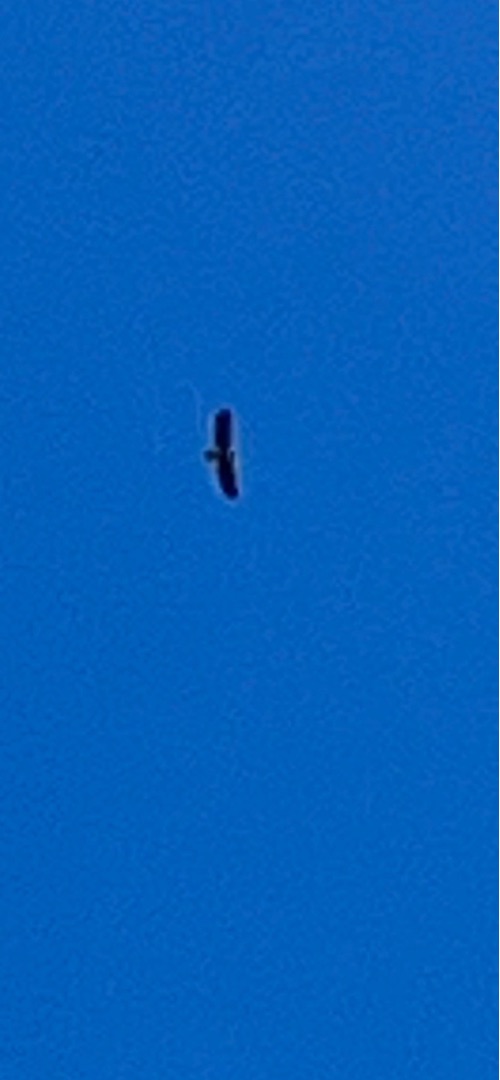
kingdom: Animalia
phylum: Chordata
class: Aves
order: Accipitriformes
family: Accipitridae
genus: Haliaeetus
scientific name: Haliaeetus albicilla
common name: Havørn
